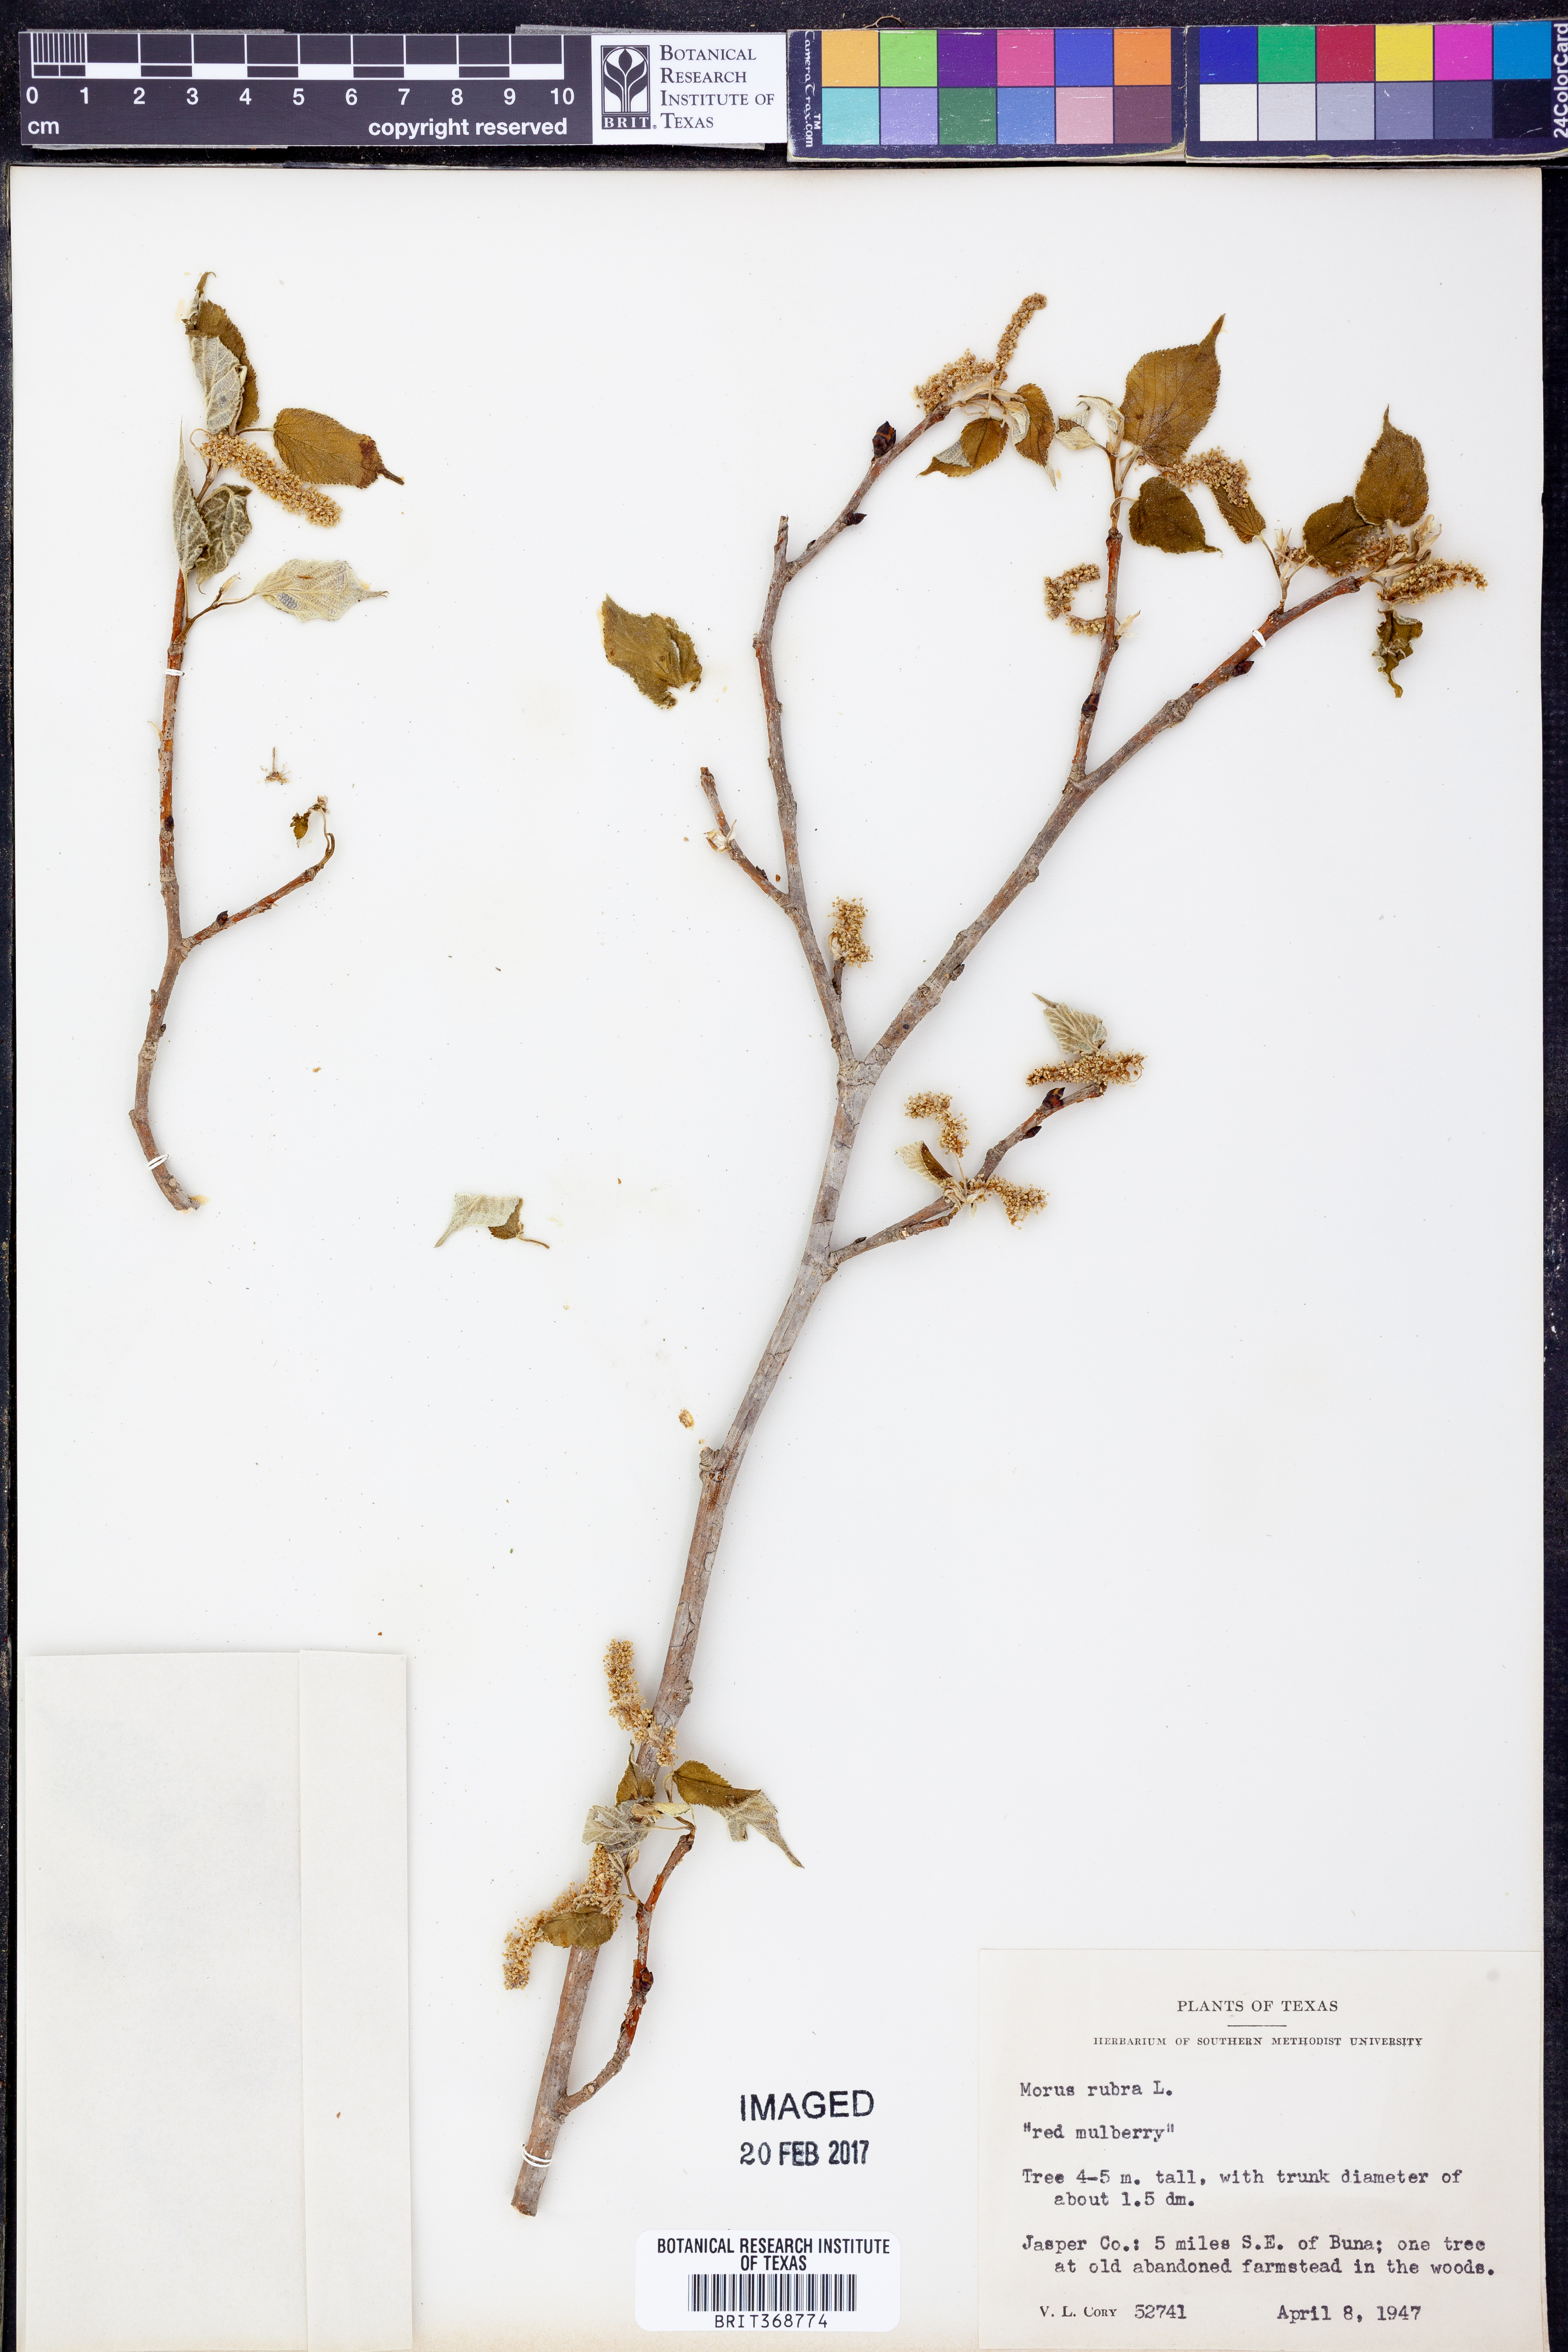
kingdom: Plantae
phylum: Tracheophyta
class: Magnoliopsida
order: Rosales
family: Moraceae
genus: Morus
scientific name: Morus rubra
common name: Red mulberry
